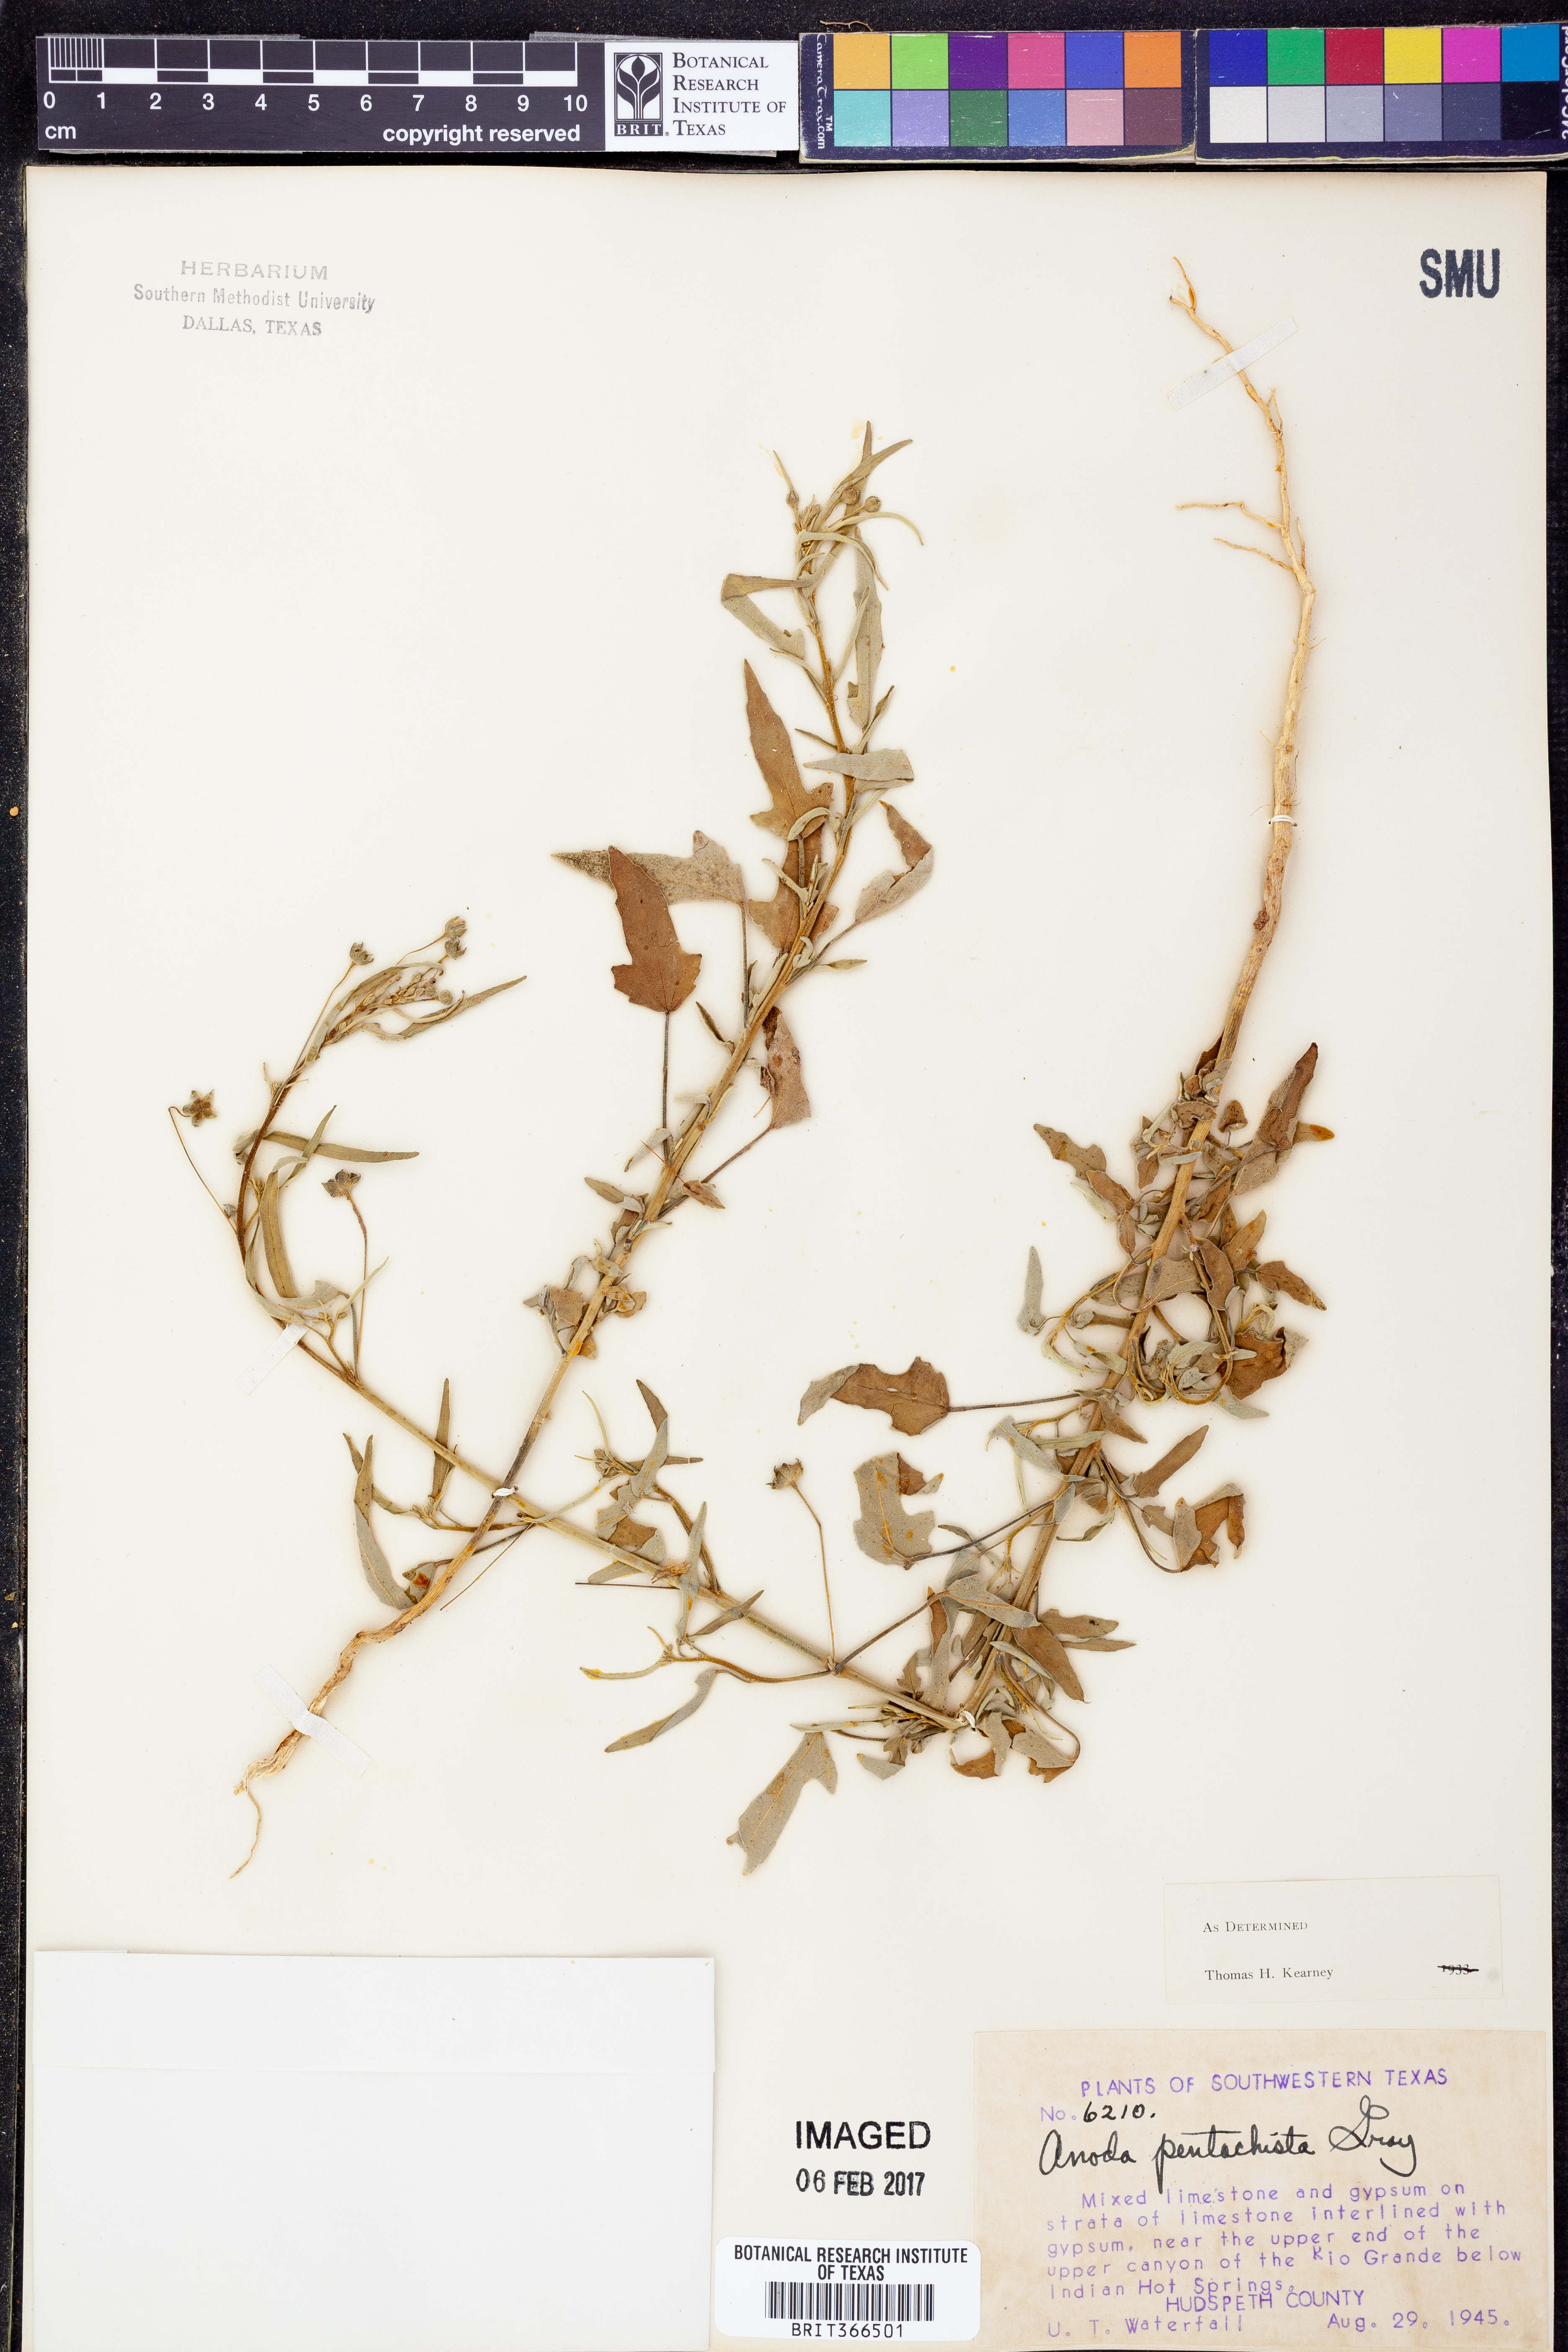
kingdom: Plantae
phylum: Tracheophyta
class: Magnoliopsida
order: Malvales
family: Malvaceae
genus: Anoda
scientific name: Anoda pentaschista
